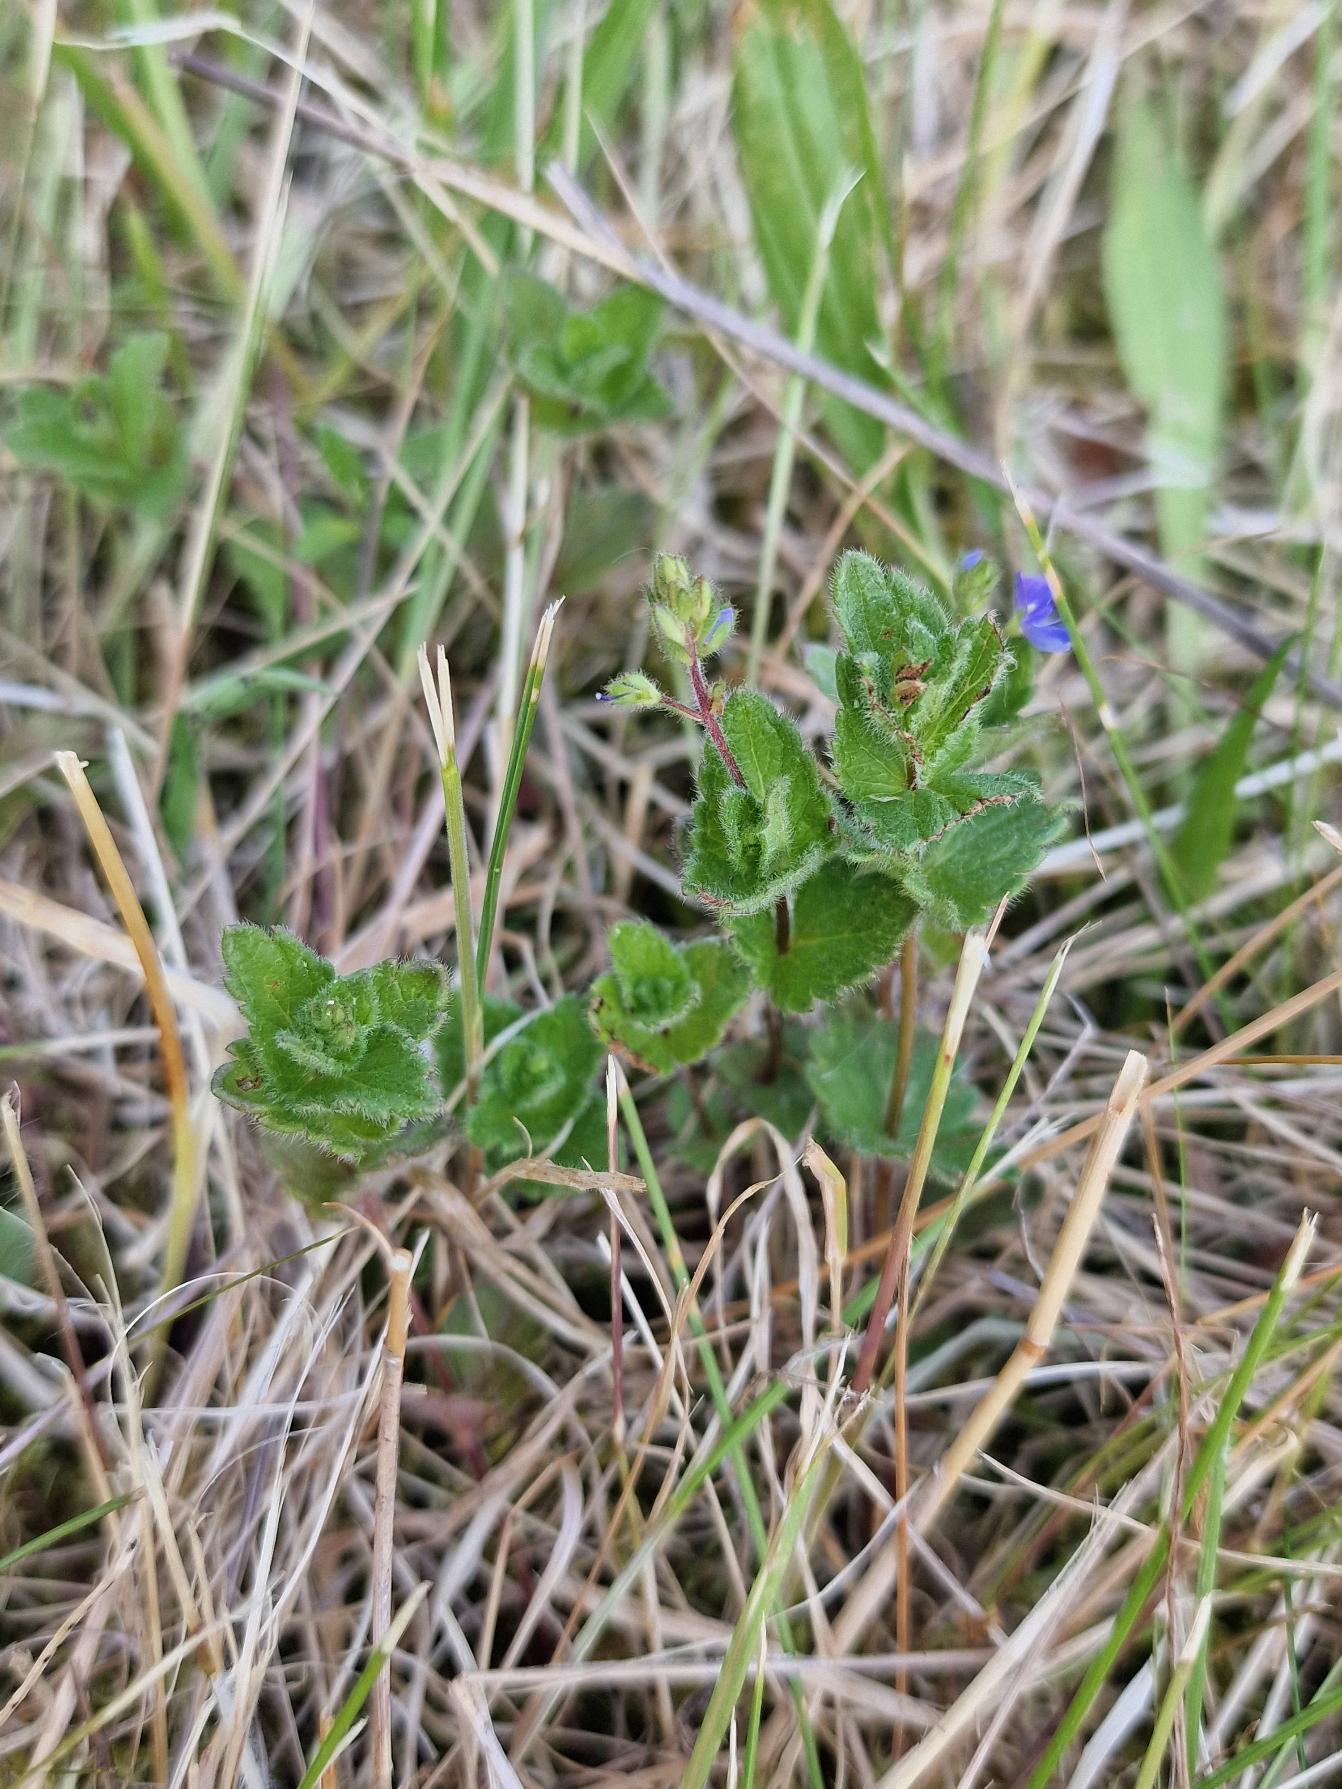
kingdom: Plantae
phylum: Tracheophyta
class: Magnoliopsida
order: Lamiales
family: Plantaginaceae
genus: Veronica
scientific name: Veronica chamaedrys
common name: Tveskægget ærenpris
